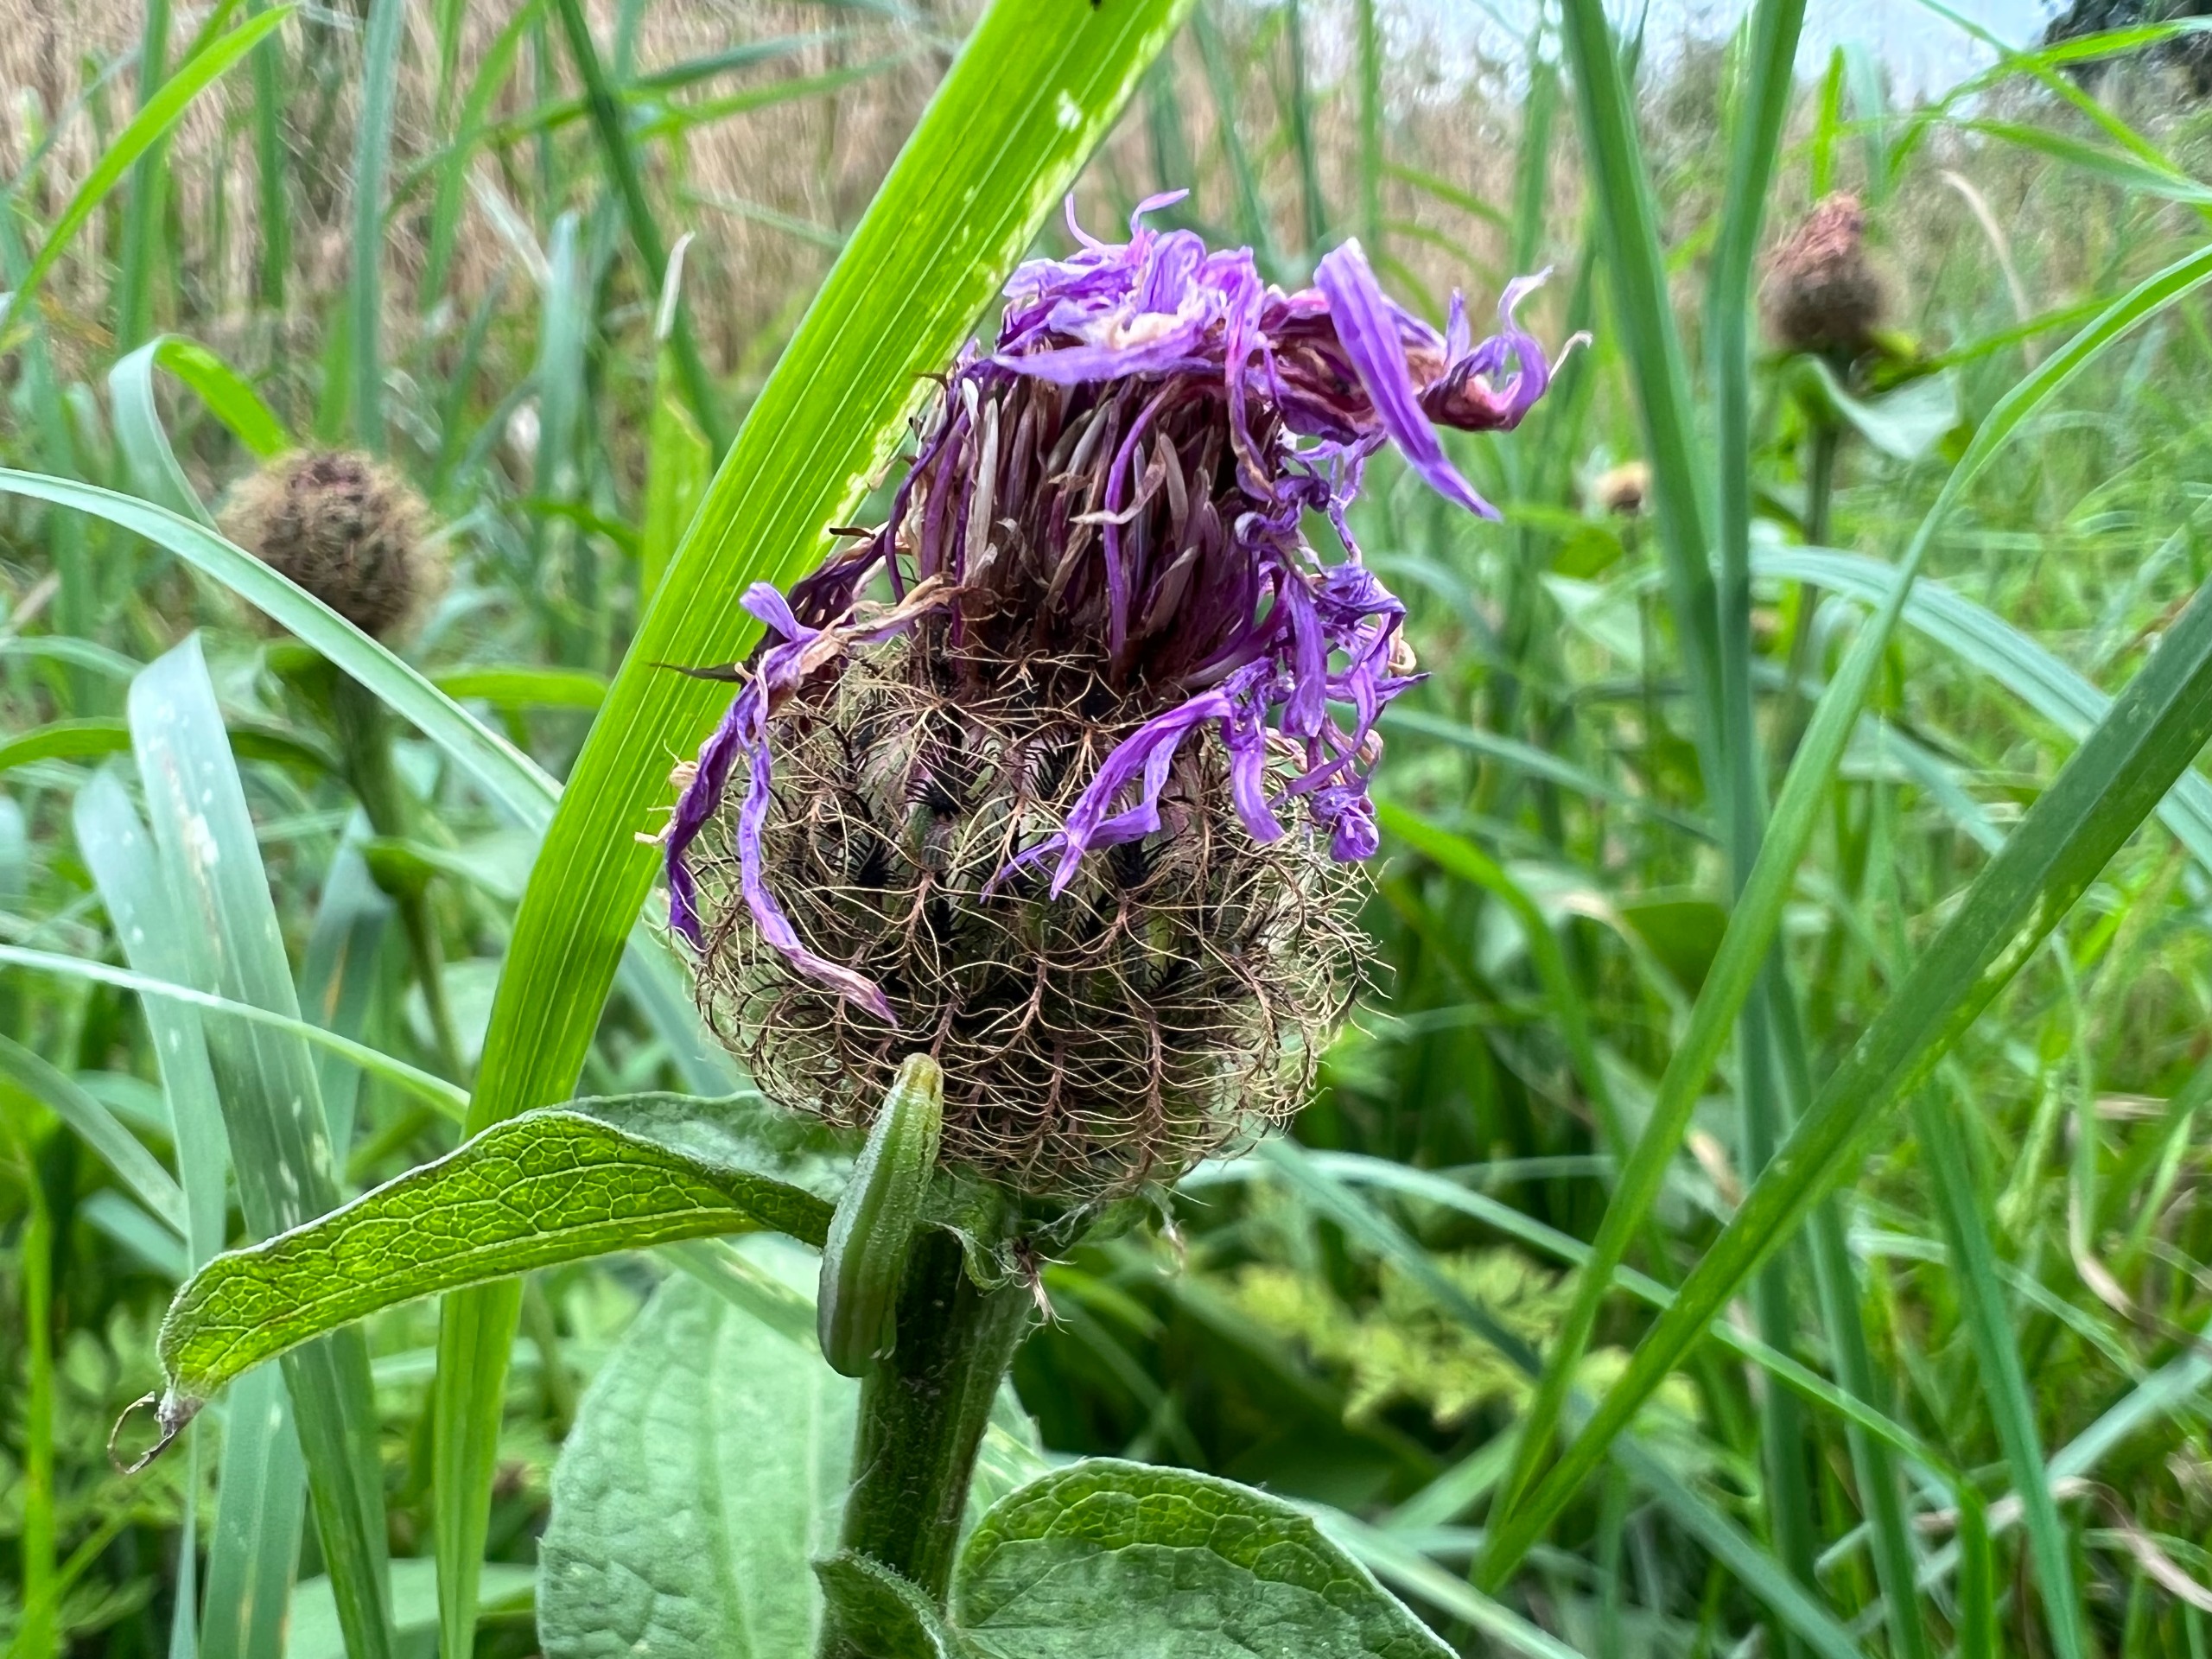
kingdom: Plantae
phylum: Tracheophyta
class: Magnoliopsida
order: Asterales
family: Asteraceae
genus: Centaurea
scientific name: Centaurea pseudophrygia
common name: Fjer-knopurt
